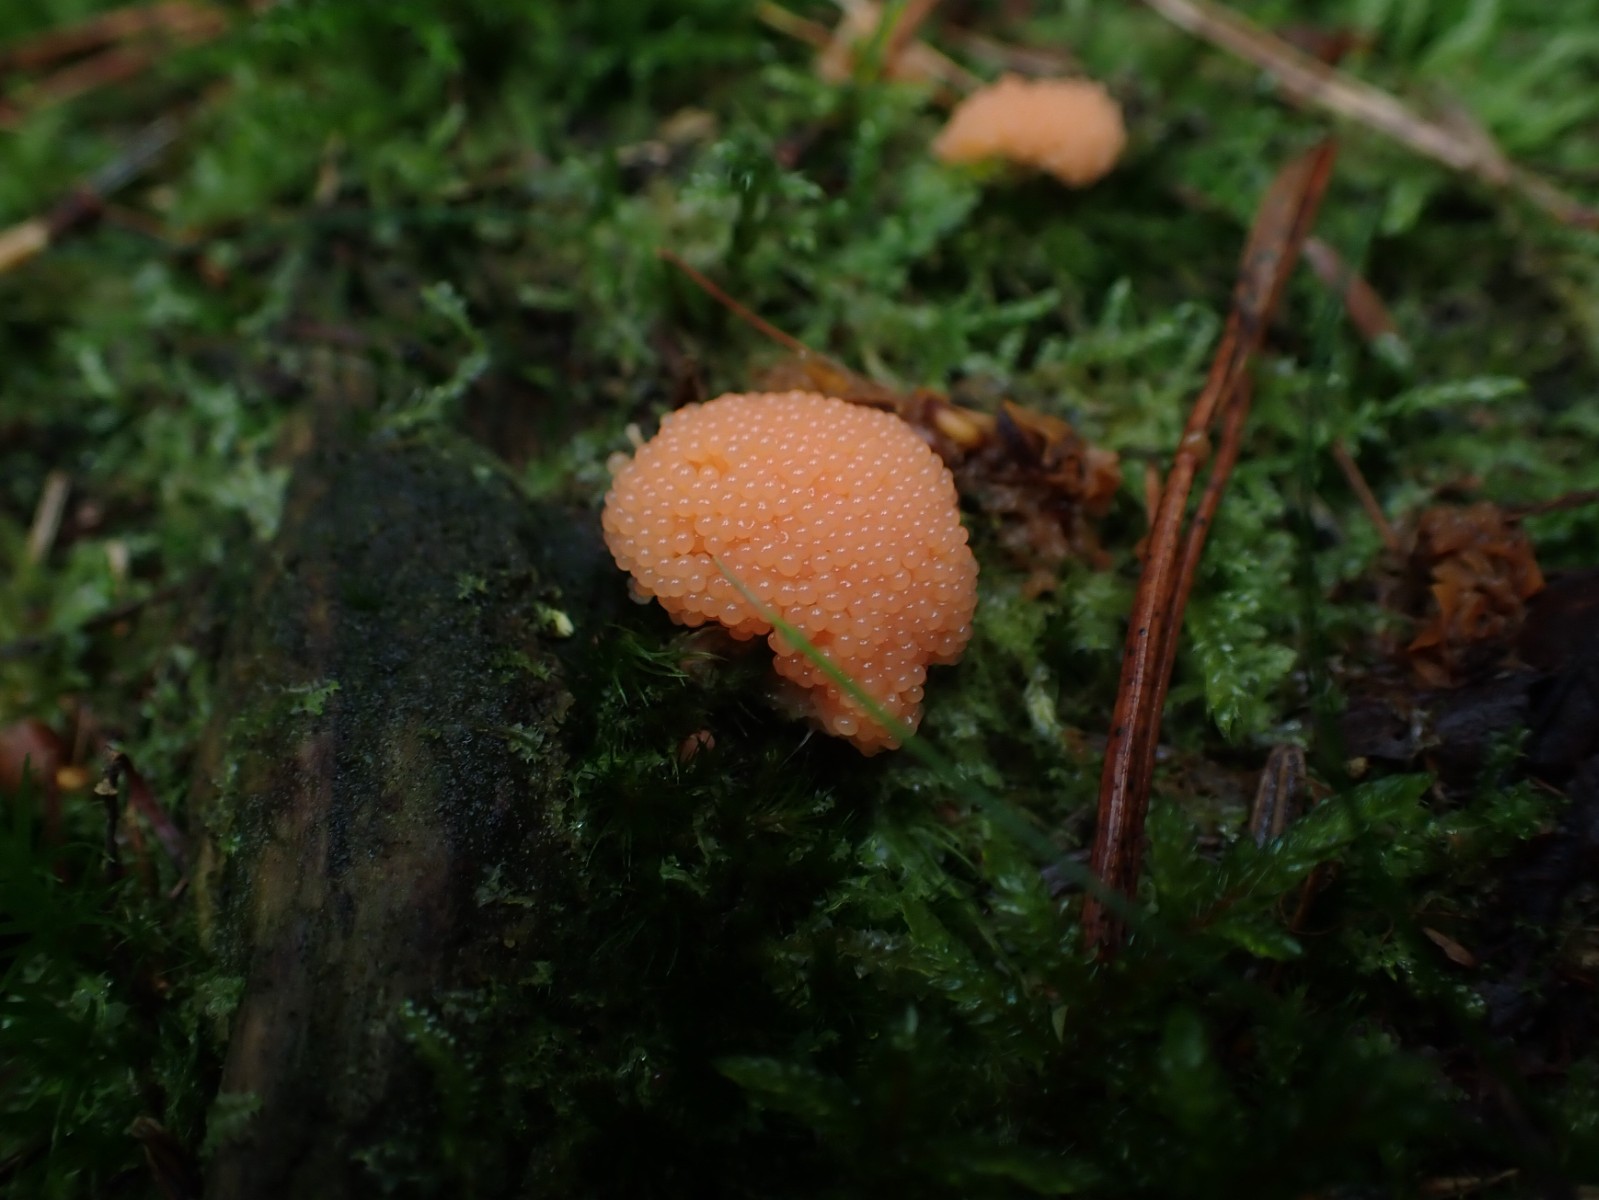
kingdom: Protozoa
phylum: Mycetozoa
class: Myxomycetes
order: Cribrariales
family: Tubiferaceae
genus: Tubifera
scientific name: Tubifera ferruginosa
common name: kanel-støvrør
